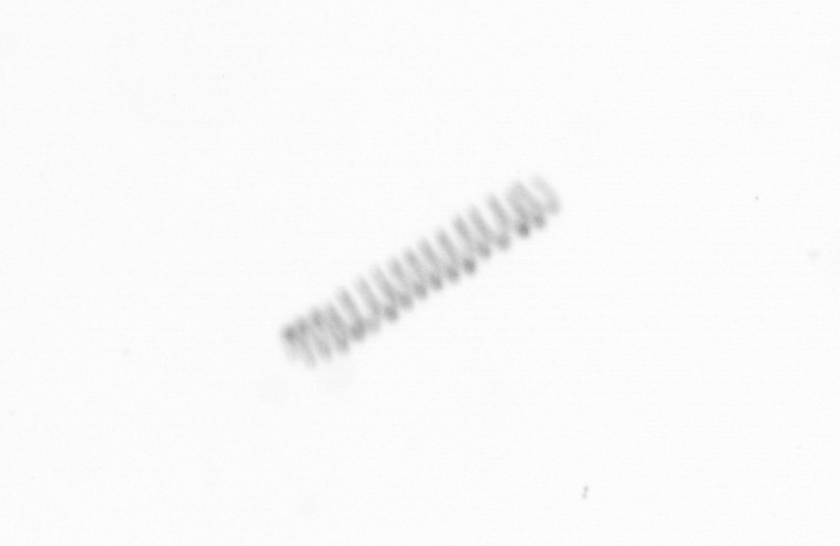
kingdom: Chromista
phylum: Ochrophyta
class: Bacillariophyceae
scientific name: Bacillariophyceae
